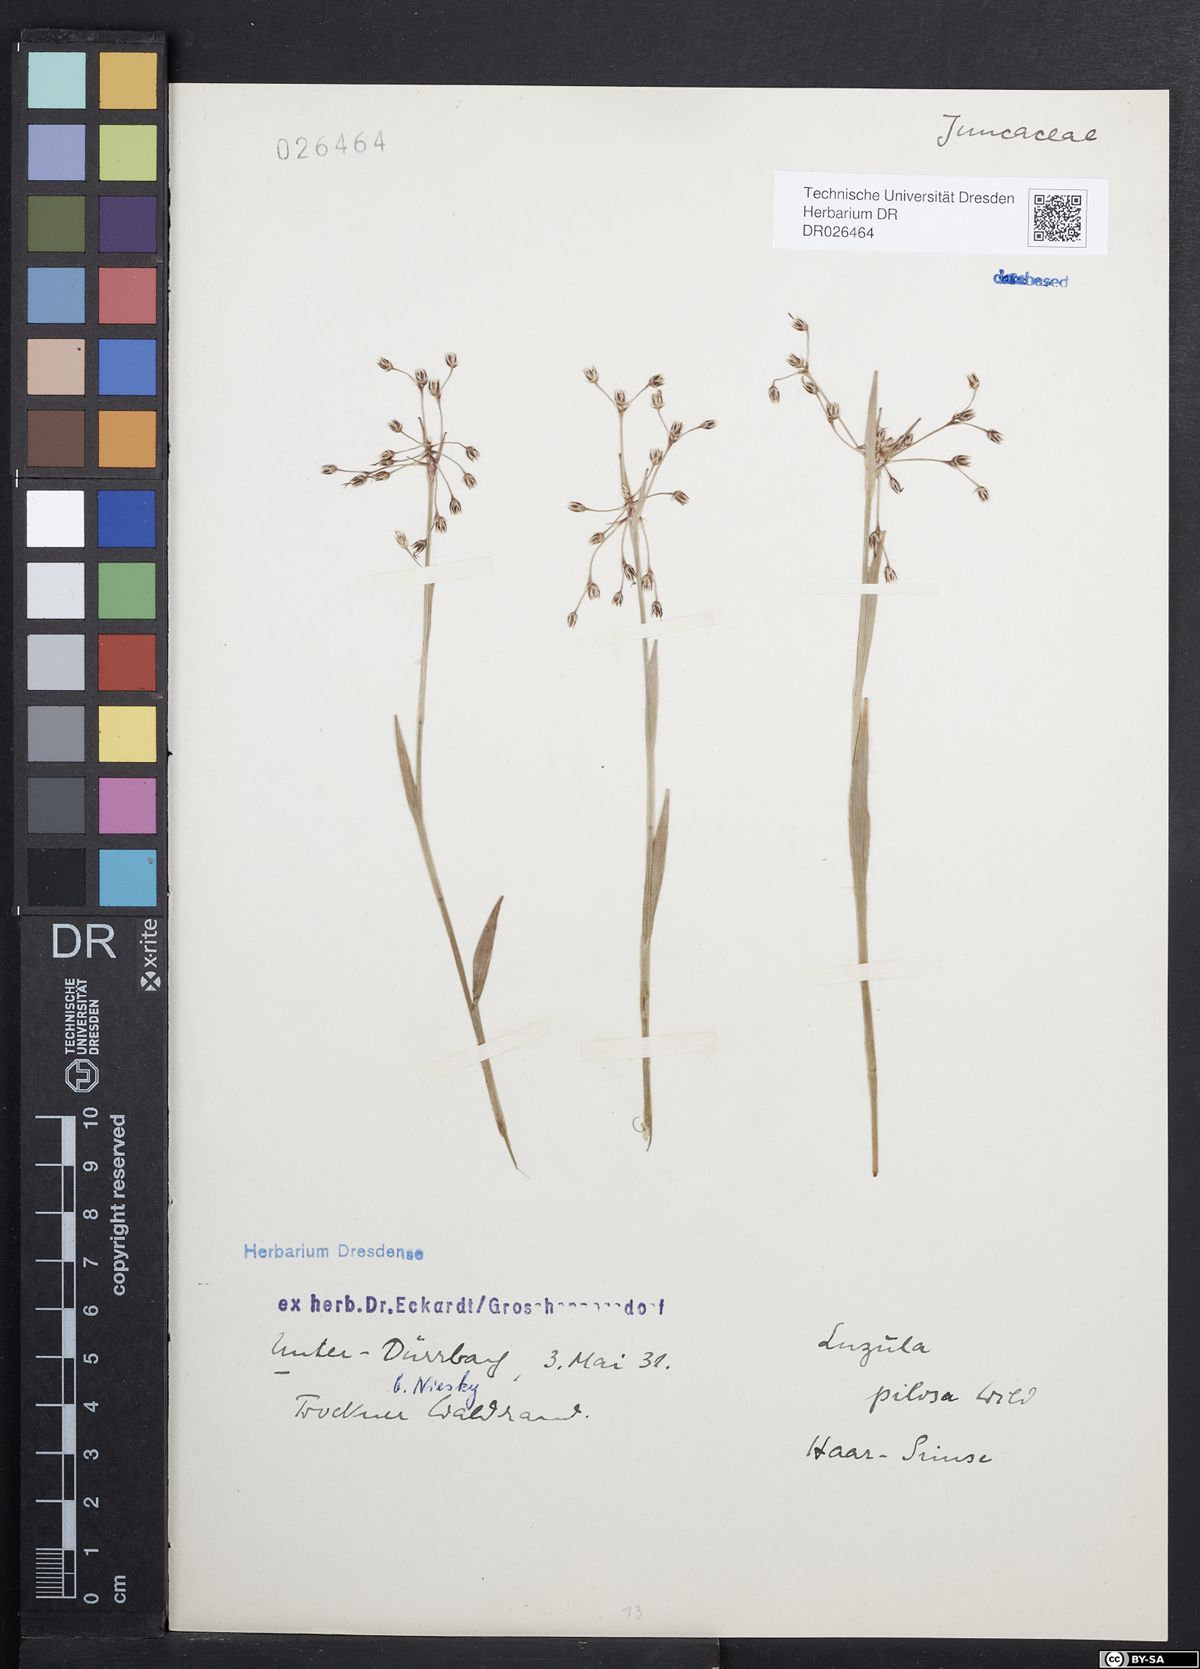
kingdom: Plantae
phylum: Tracheophyta
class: Liliopsida
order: Poales
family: Juncaceae
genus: Luzula
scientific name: Luzula pilosa
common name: Hairy wood-rush
